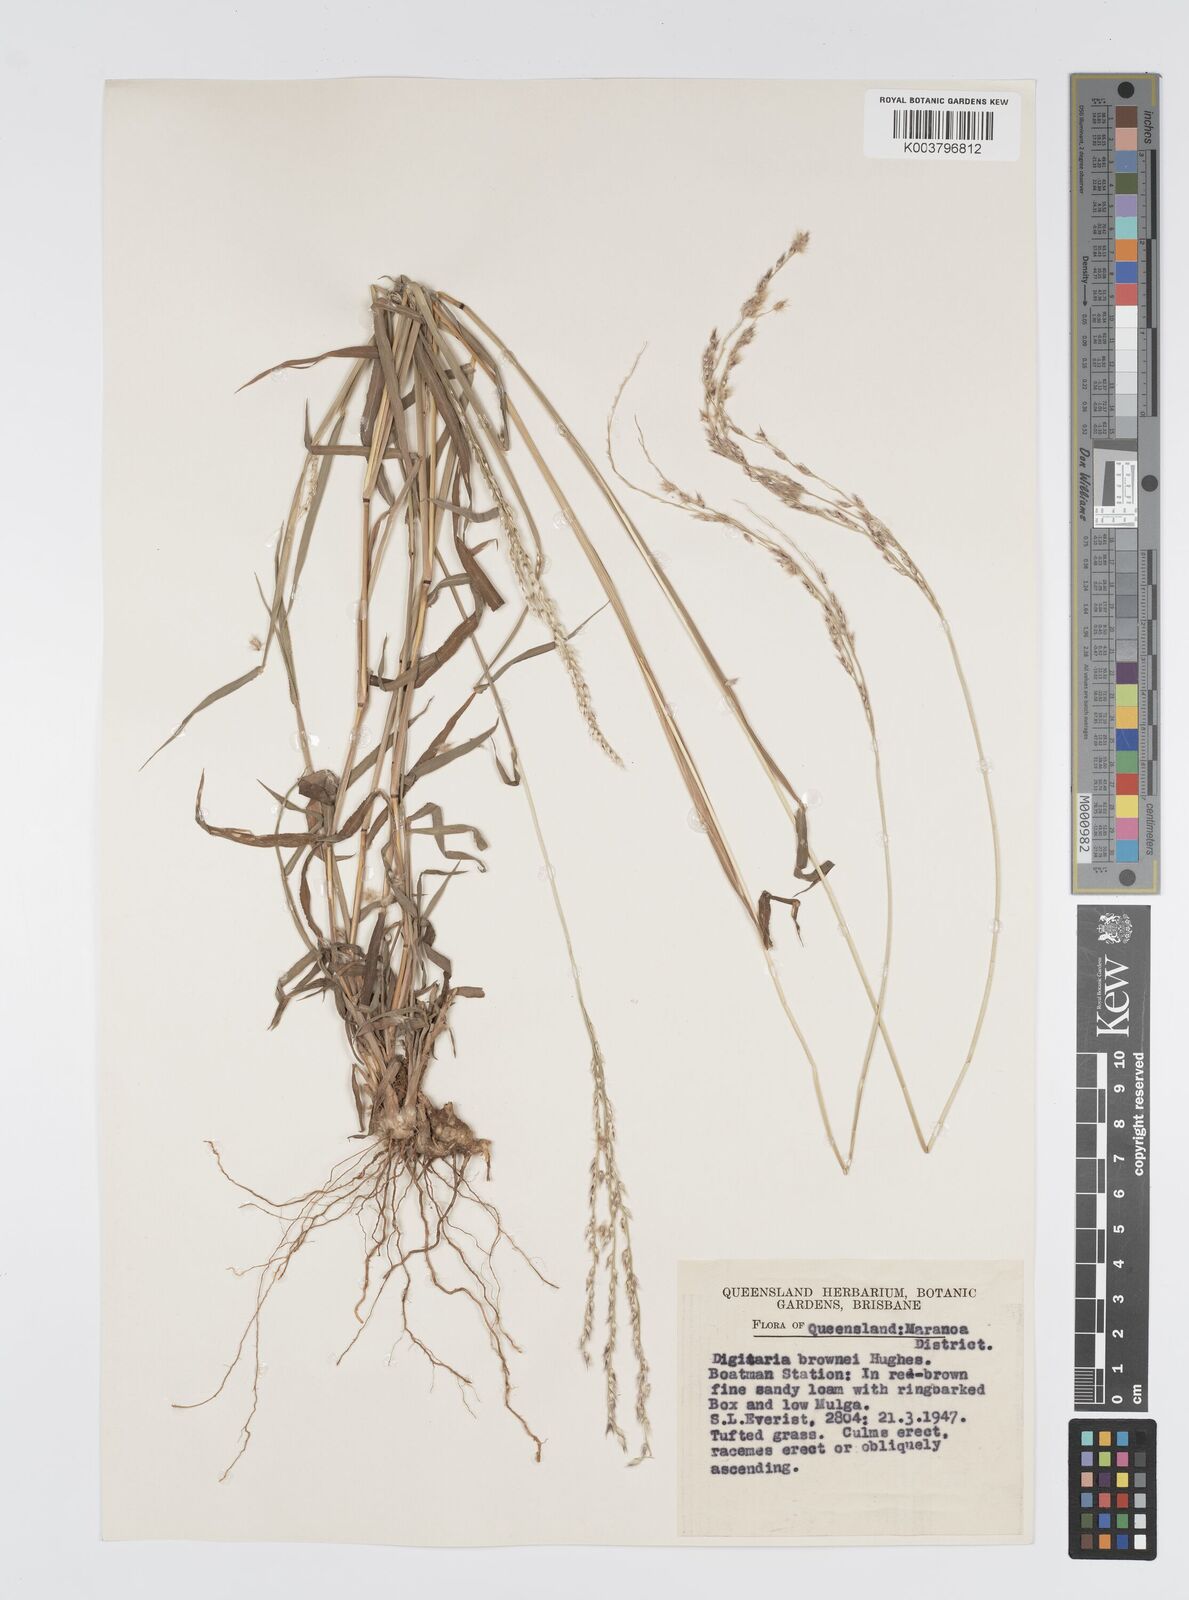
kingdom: Plantae
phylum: Tracheophyta
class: Liliopsida
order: Poales
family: Poaceae
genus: Digitaria
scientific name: Digitaria brownii
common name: Cotton grass
